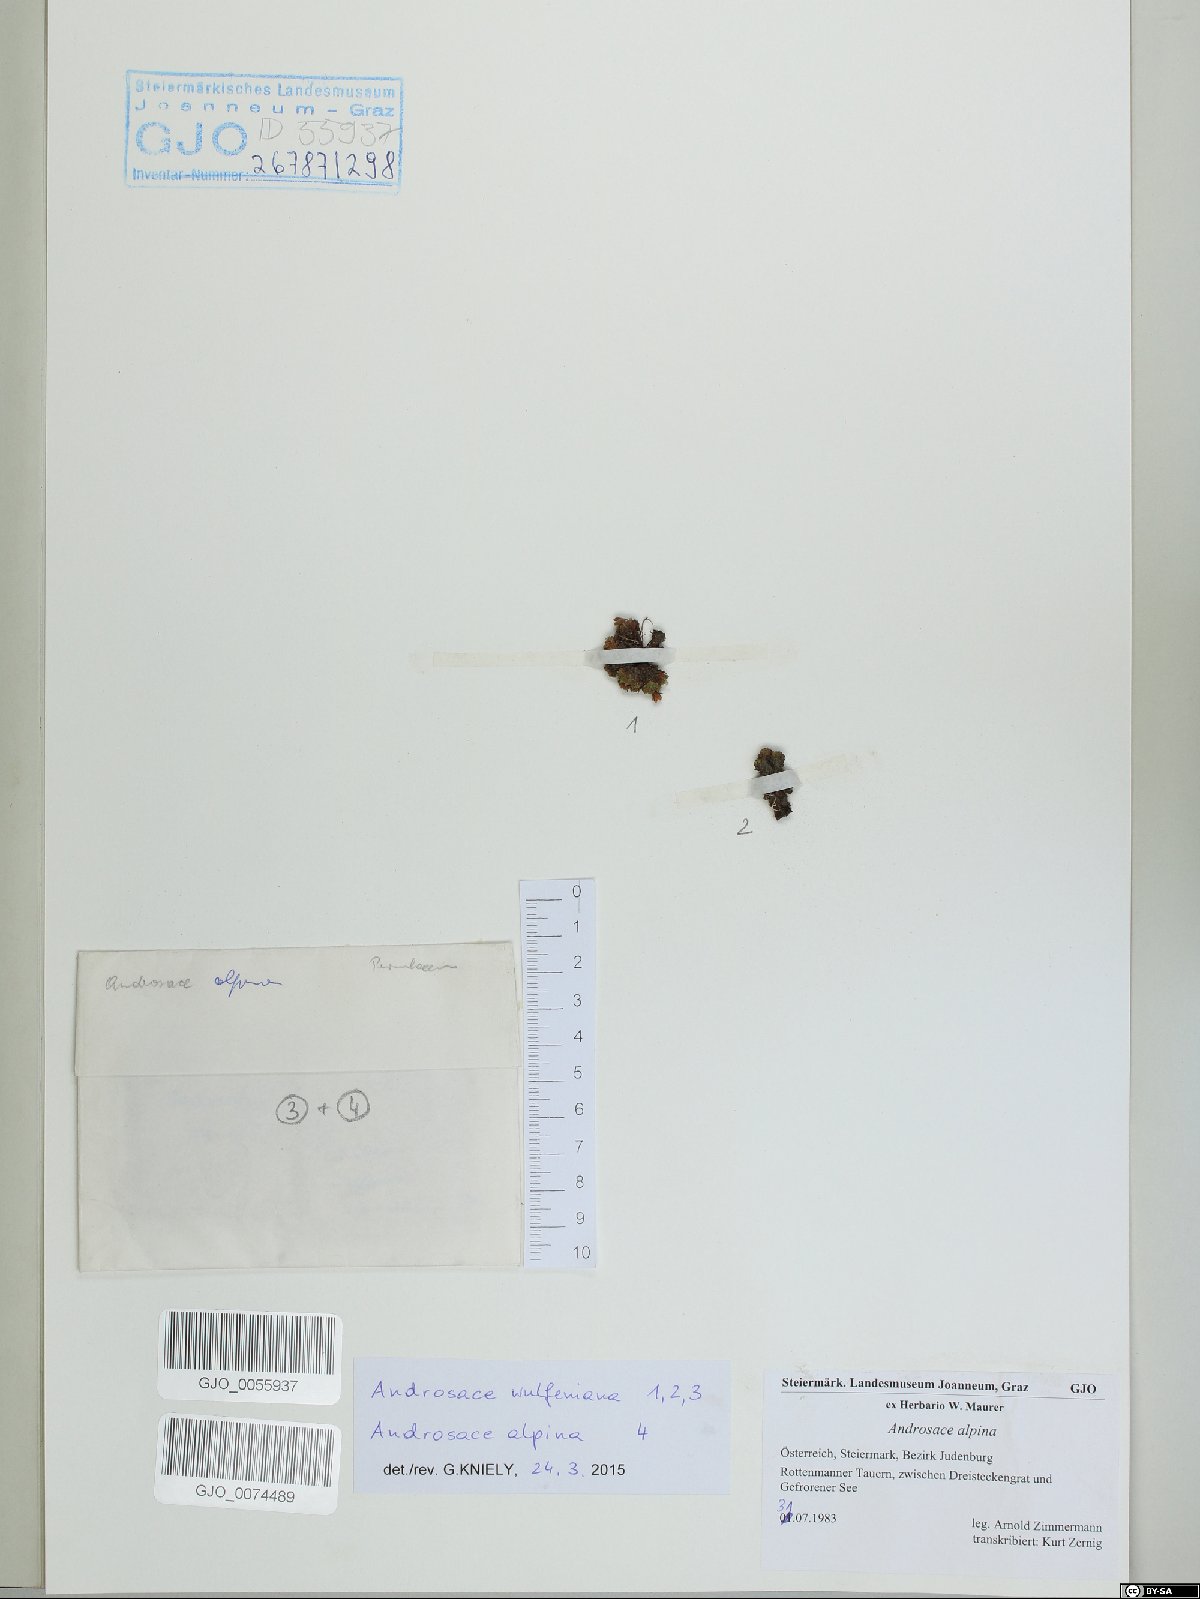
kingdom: Plantae
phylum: Tracheophyta
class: Magnoliopsida
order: Ericales
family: Primulaceae
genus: Androsace
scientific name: Androsace alpina
